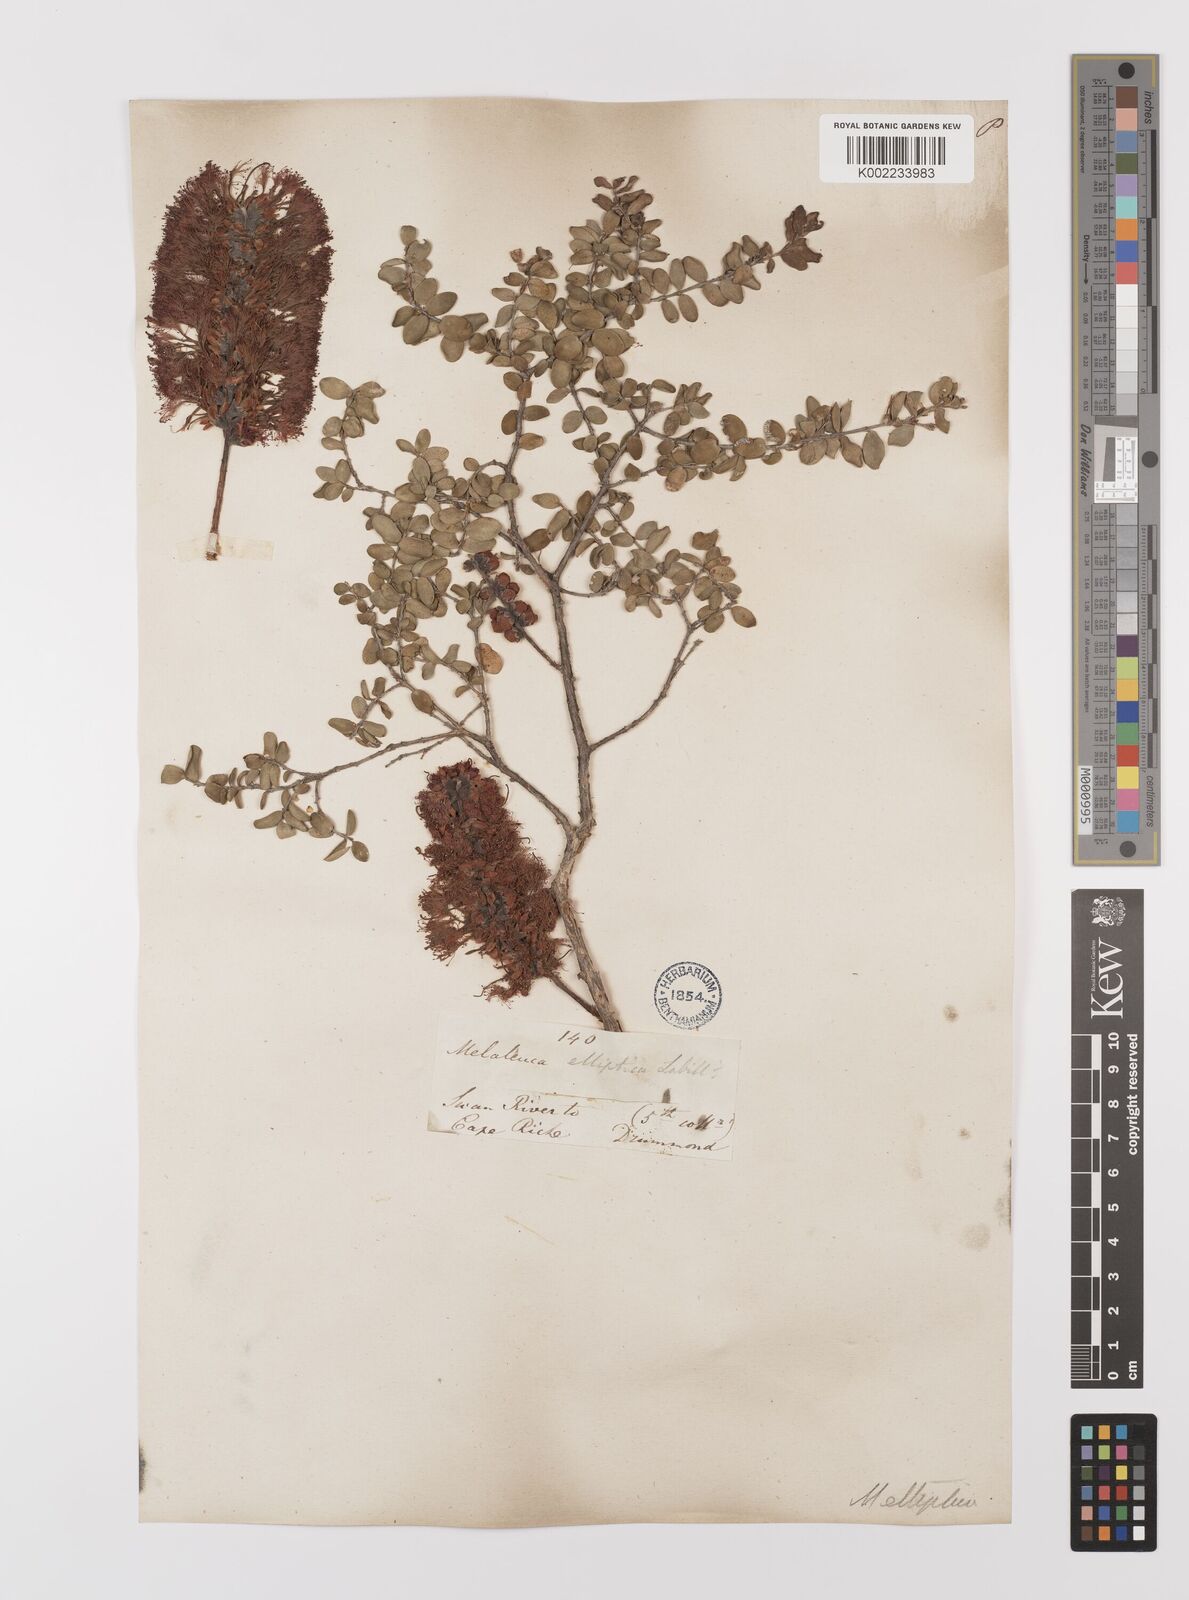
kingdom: Plantae
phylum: Tracheophyta
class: Magnoliopsida
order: Myrtales
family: Myrtaceae
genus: Melaleuca
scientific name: Melaleuca elliptica
